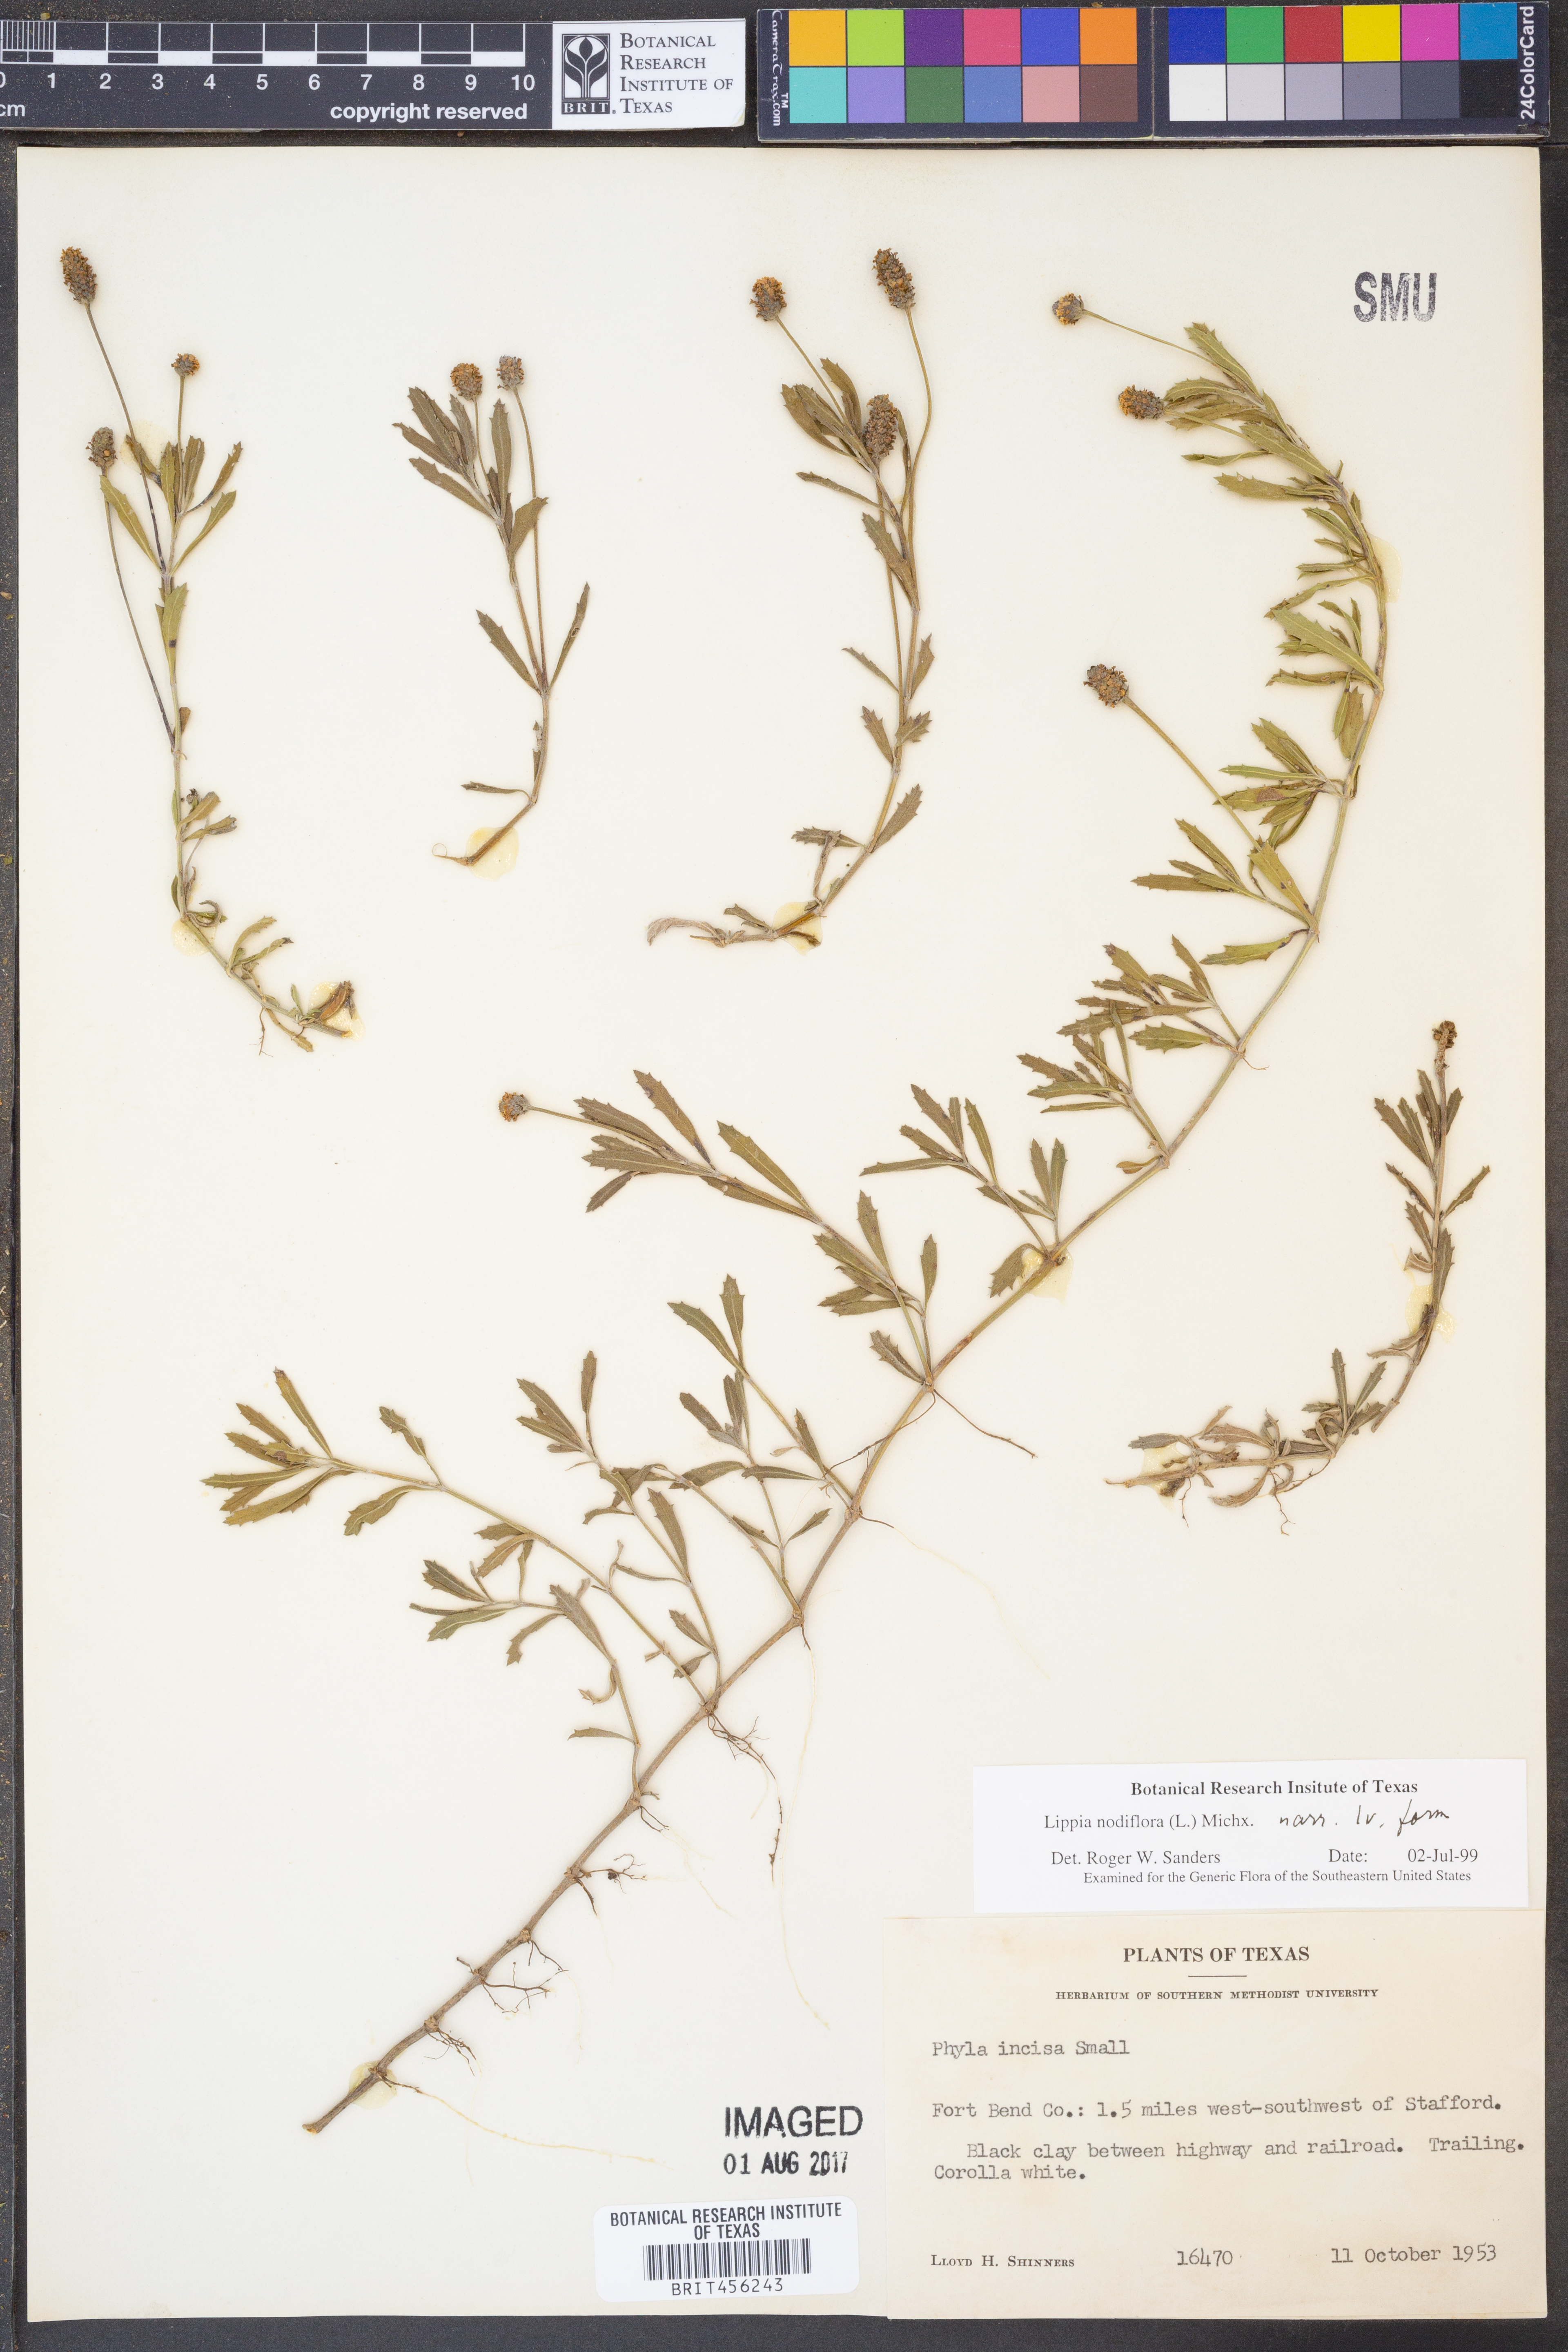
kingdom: Plantae
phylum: Tracheophyta
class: Magnoliopsida
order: Lamiales
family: Verbenaceae
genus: Phyla
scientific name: Phyla nodiflora
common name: Frogfruit
